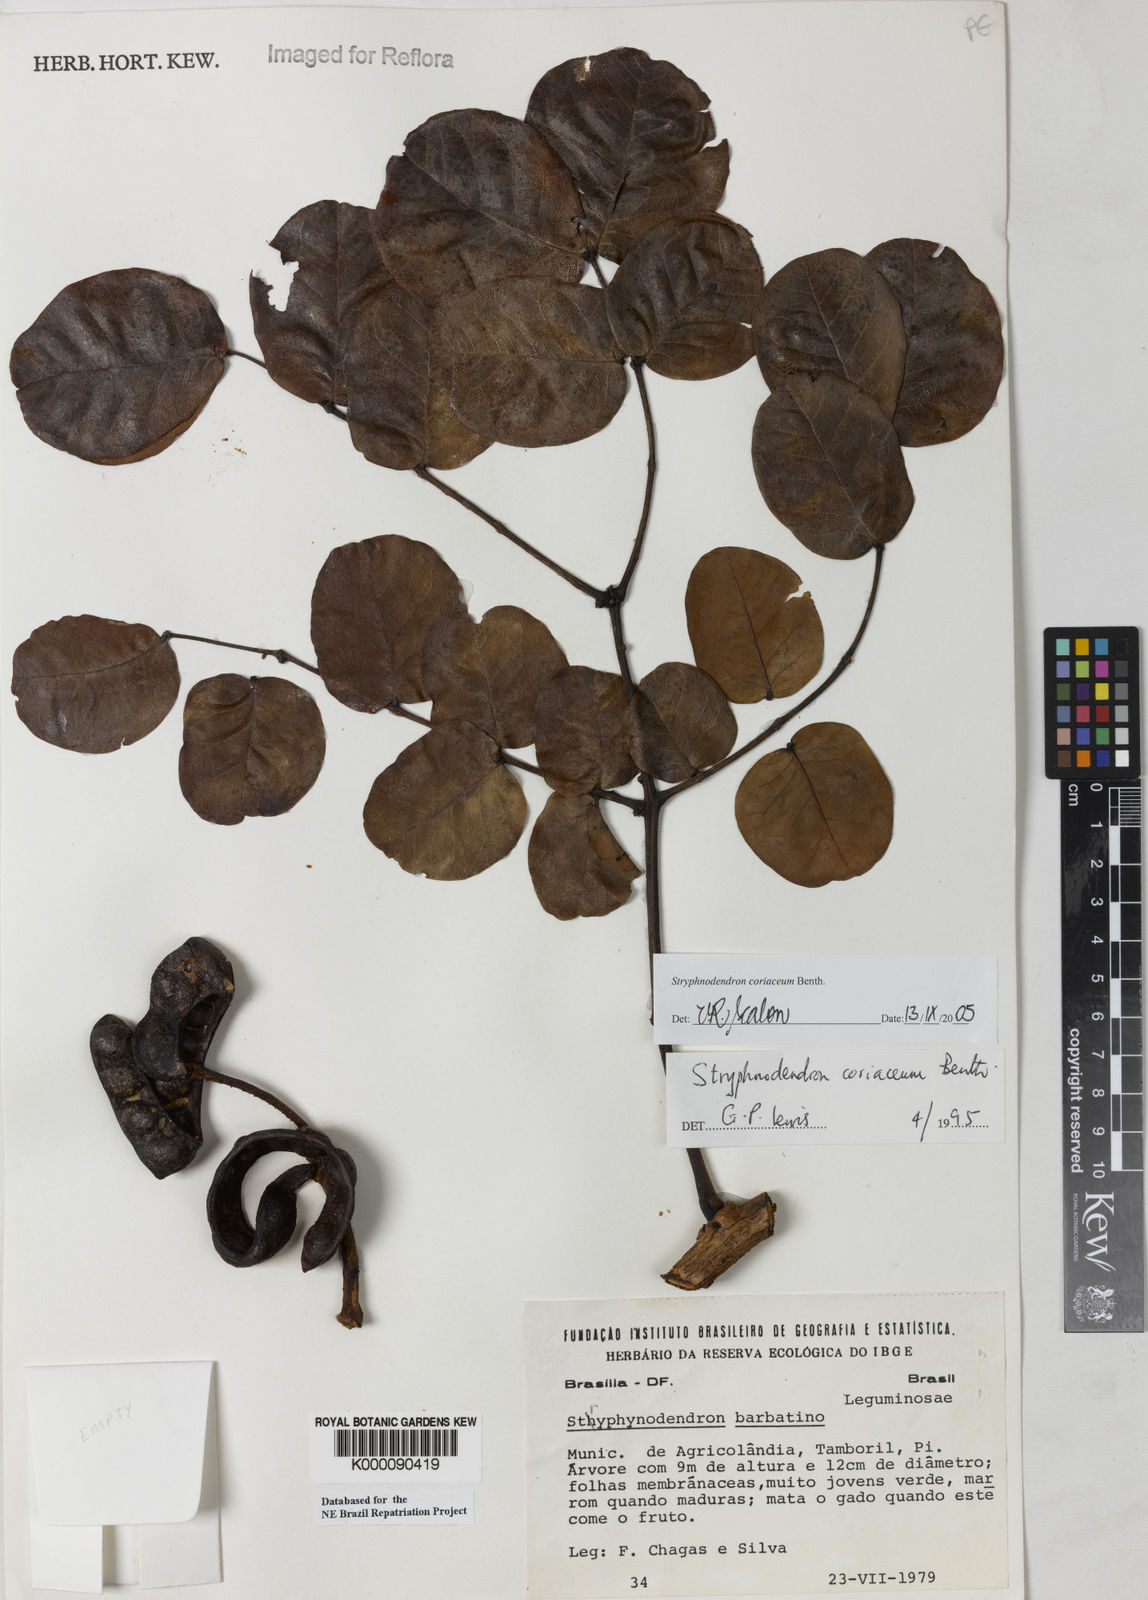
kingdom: Plantae
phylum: Tracheophyta
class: Magnoliopsida
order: Fabales
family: Fabaceae
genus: Stryphnodendron
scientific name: Stryphnodendron coriaceum
